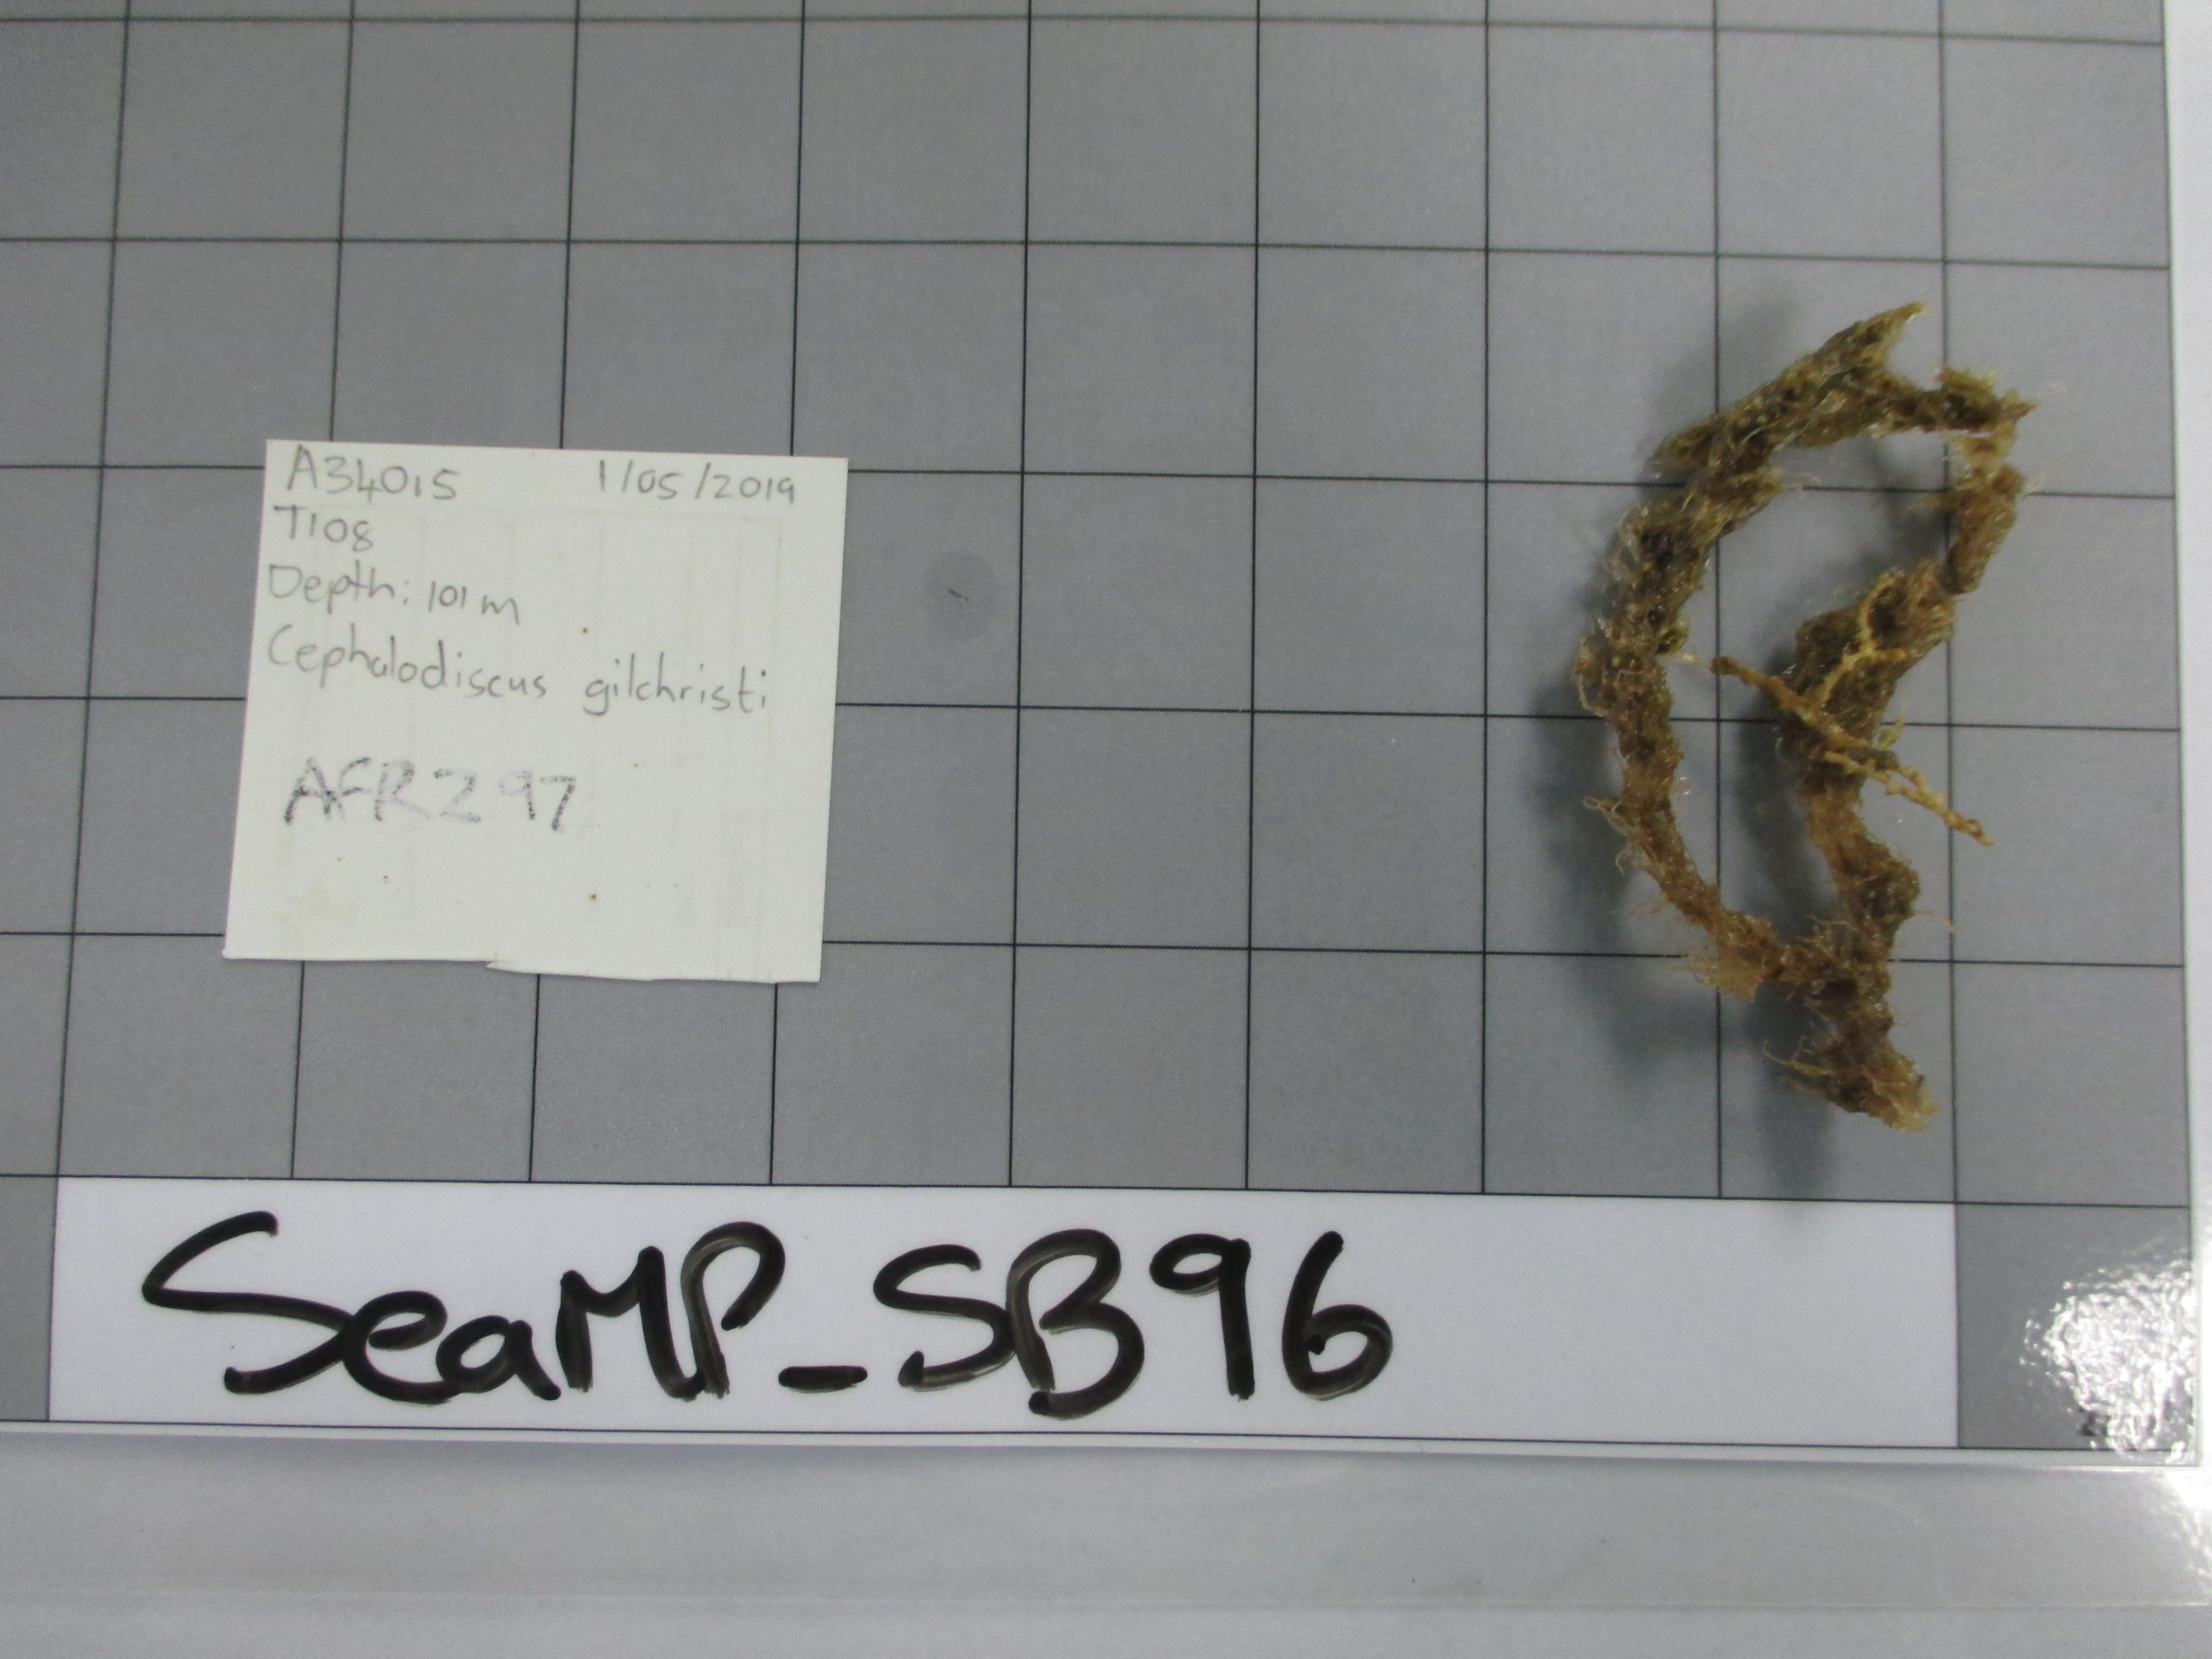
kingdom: Animalia
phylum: Hemichordata
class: Pterobranchia
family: Cephalodiscidae
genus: Cephalodiscus
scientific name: Cephalodiscus gilchristi
